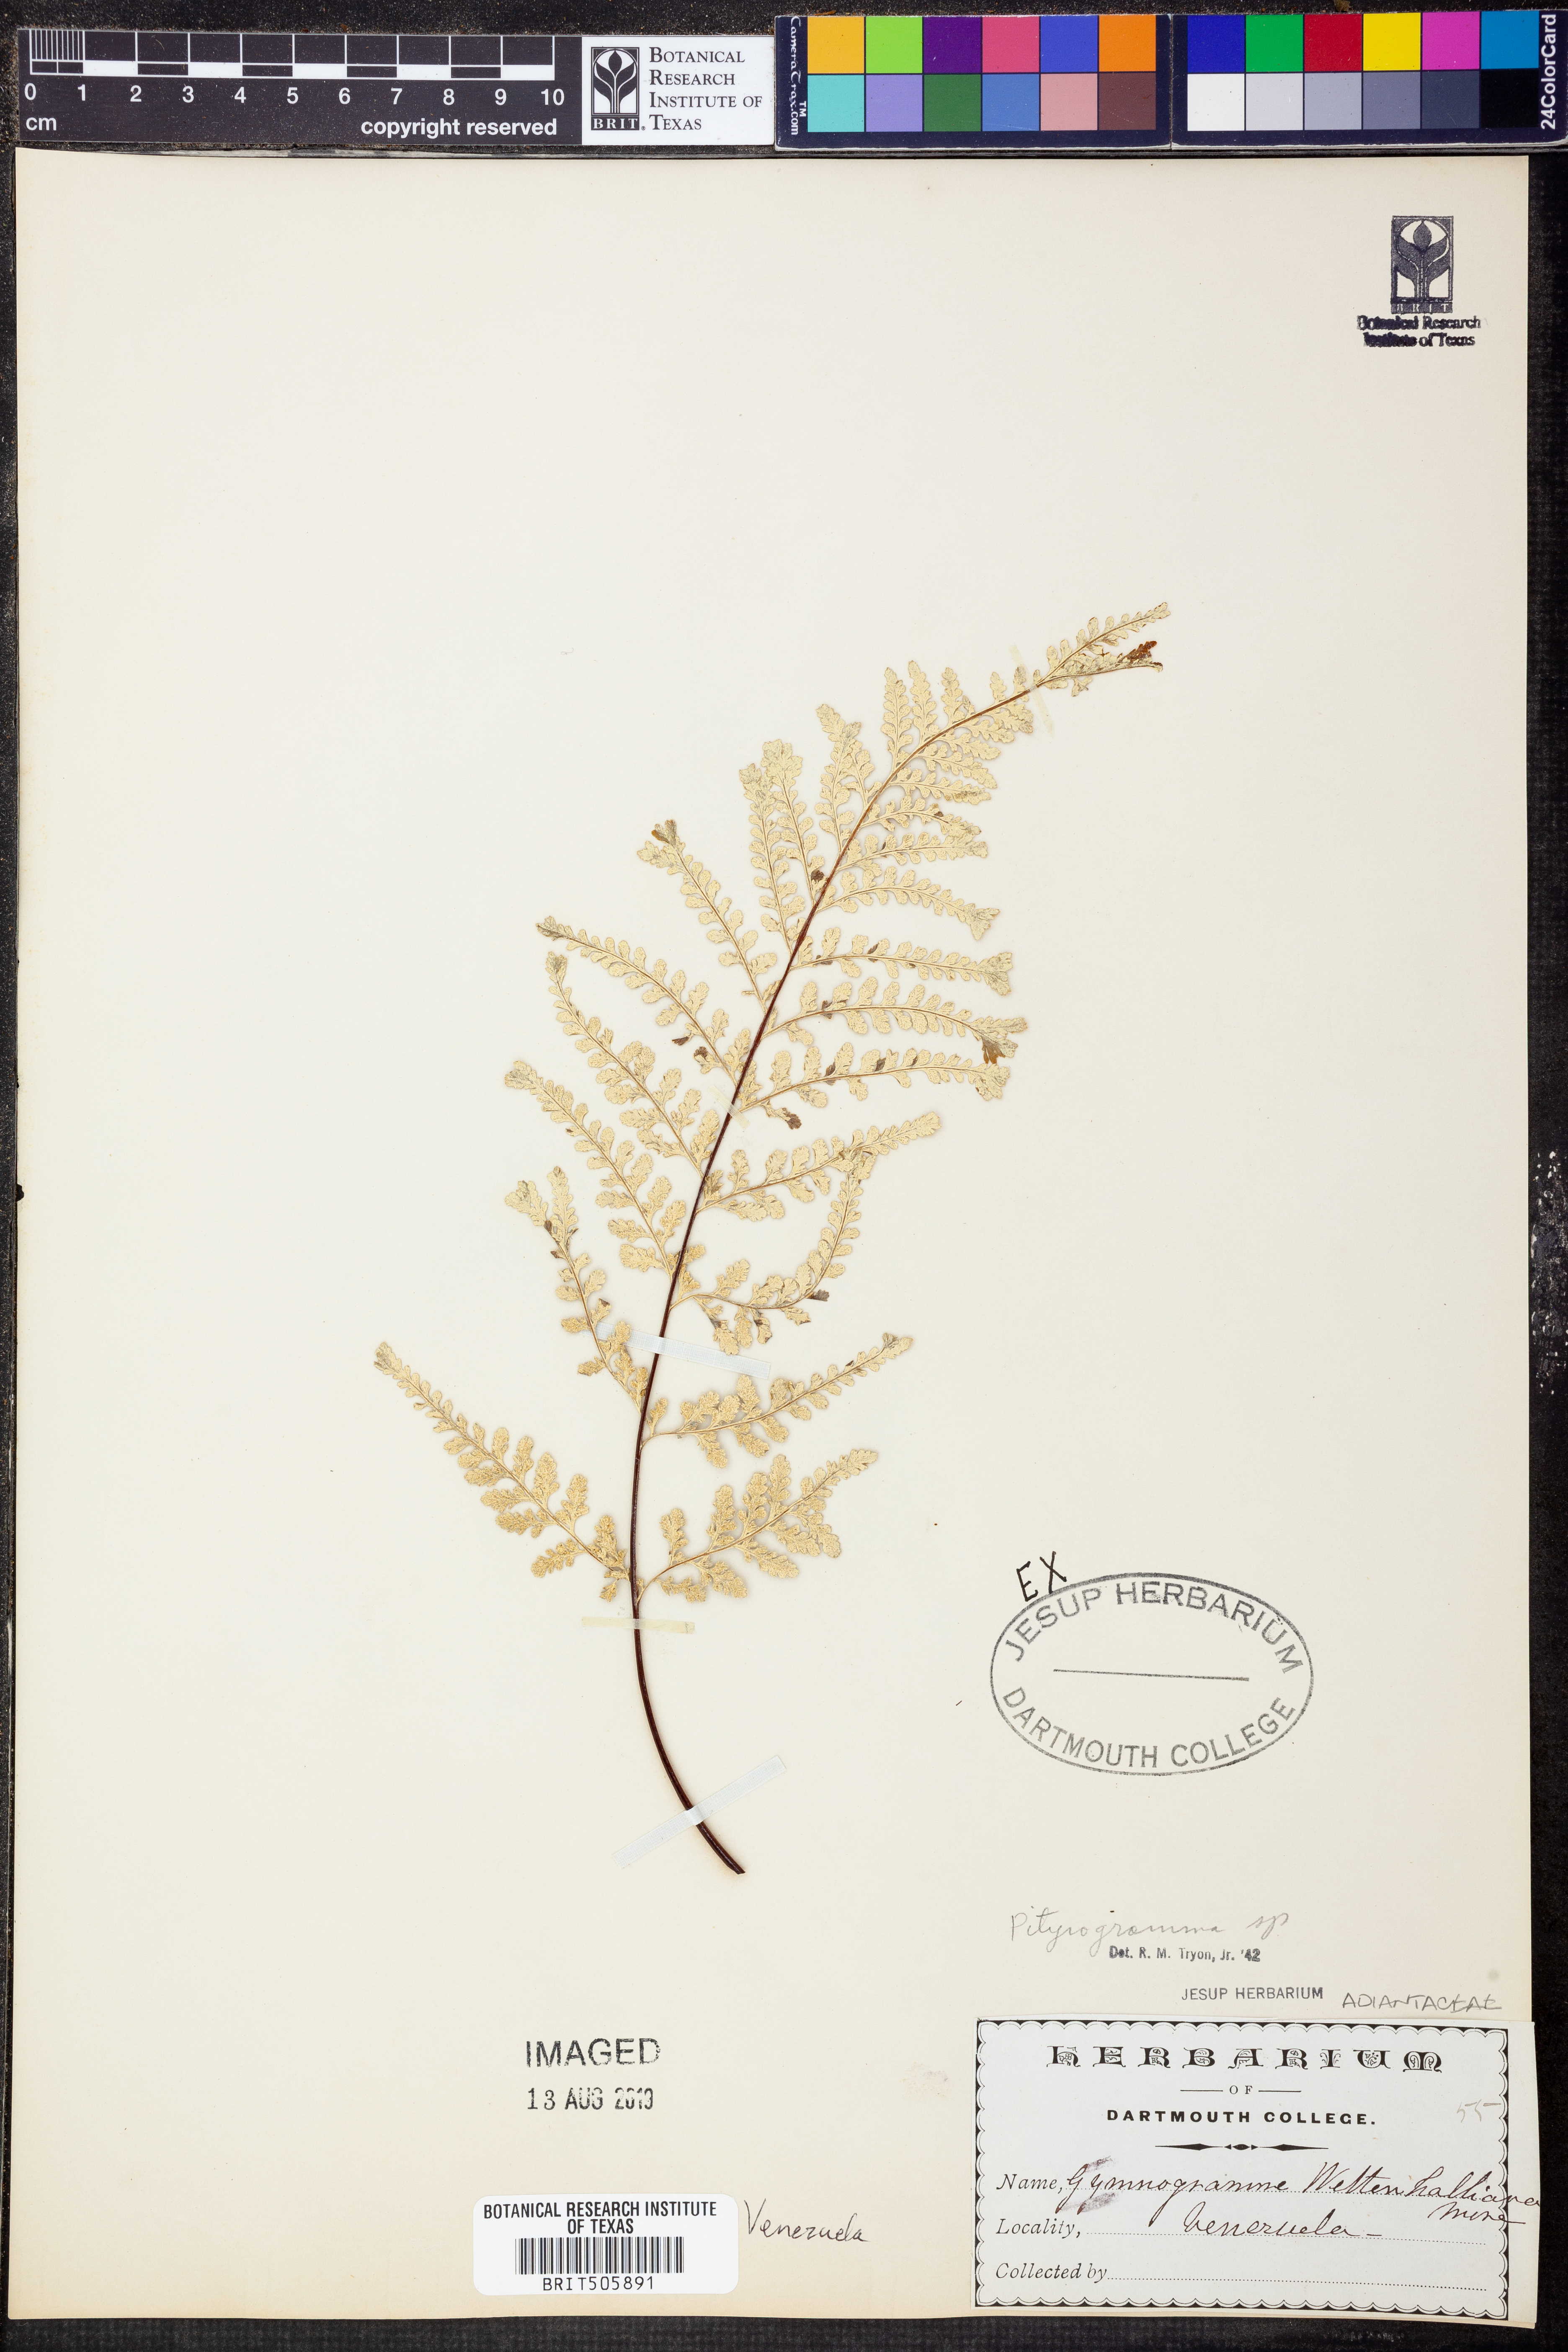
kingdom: Plantae
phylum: Tracheophyta
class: Polypodiopsida
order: Polypodiales
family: Pteridaceae
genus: Pityrogramma
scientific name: Pityrogramma
